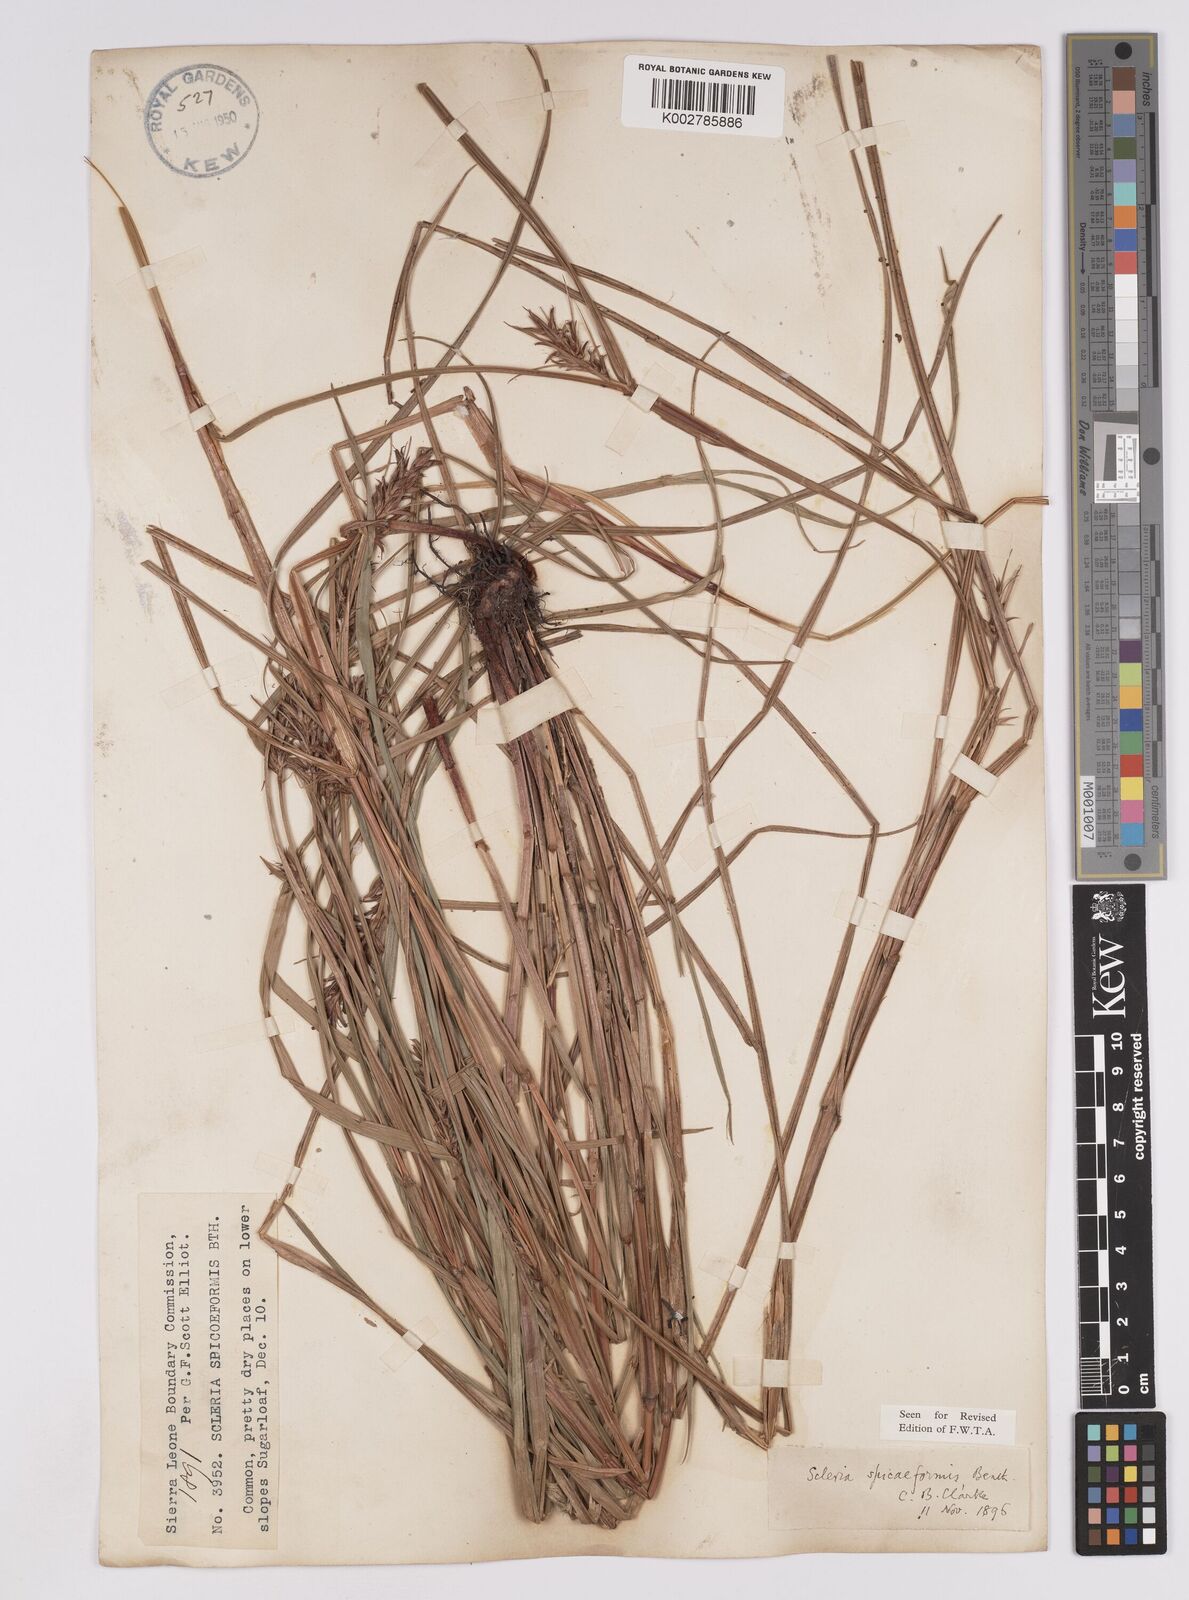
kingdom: Plantae
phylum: Tracheophyta
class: Liliopsida
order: Poales
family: Cyperaceae
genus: Scleria
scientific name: Scleria spiciformis
